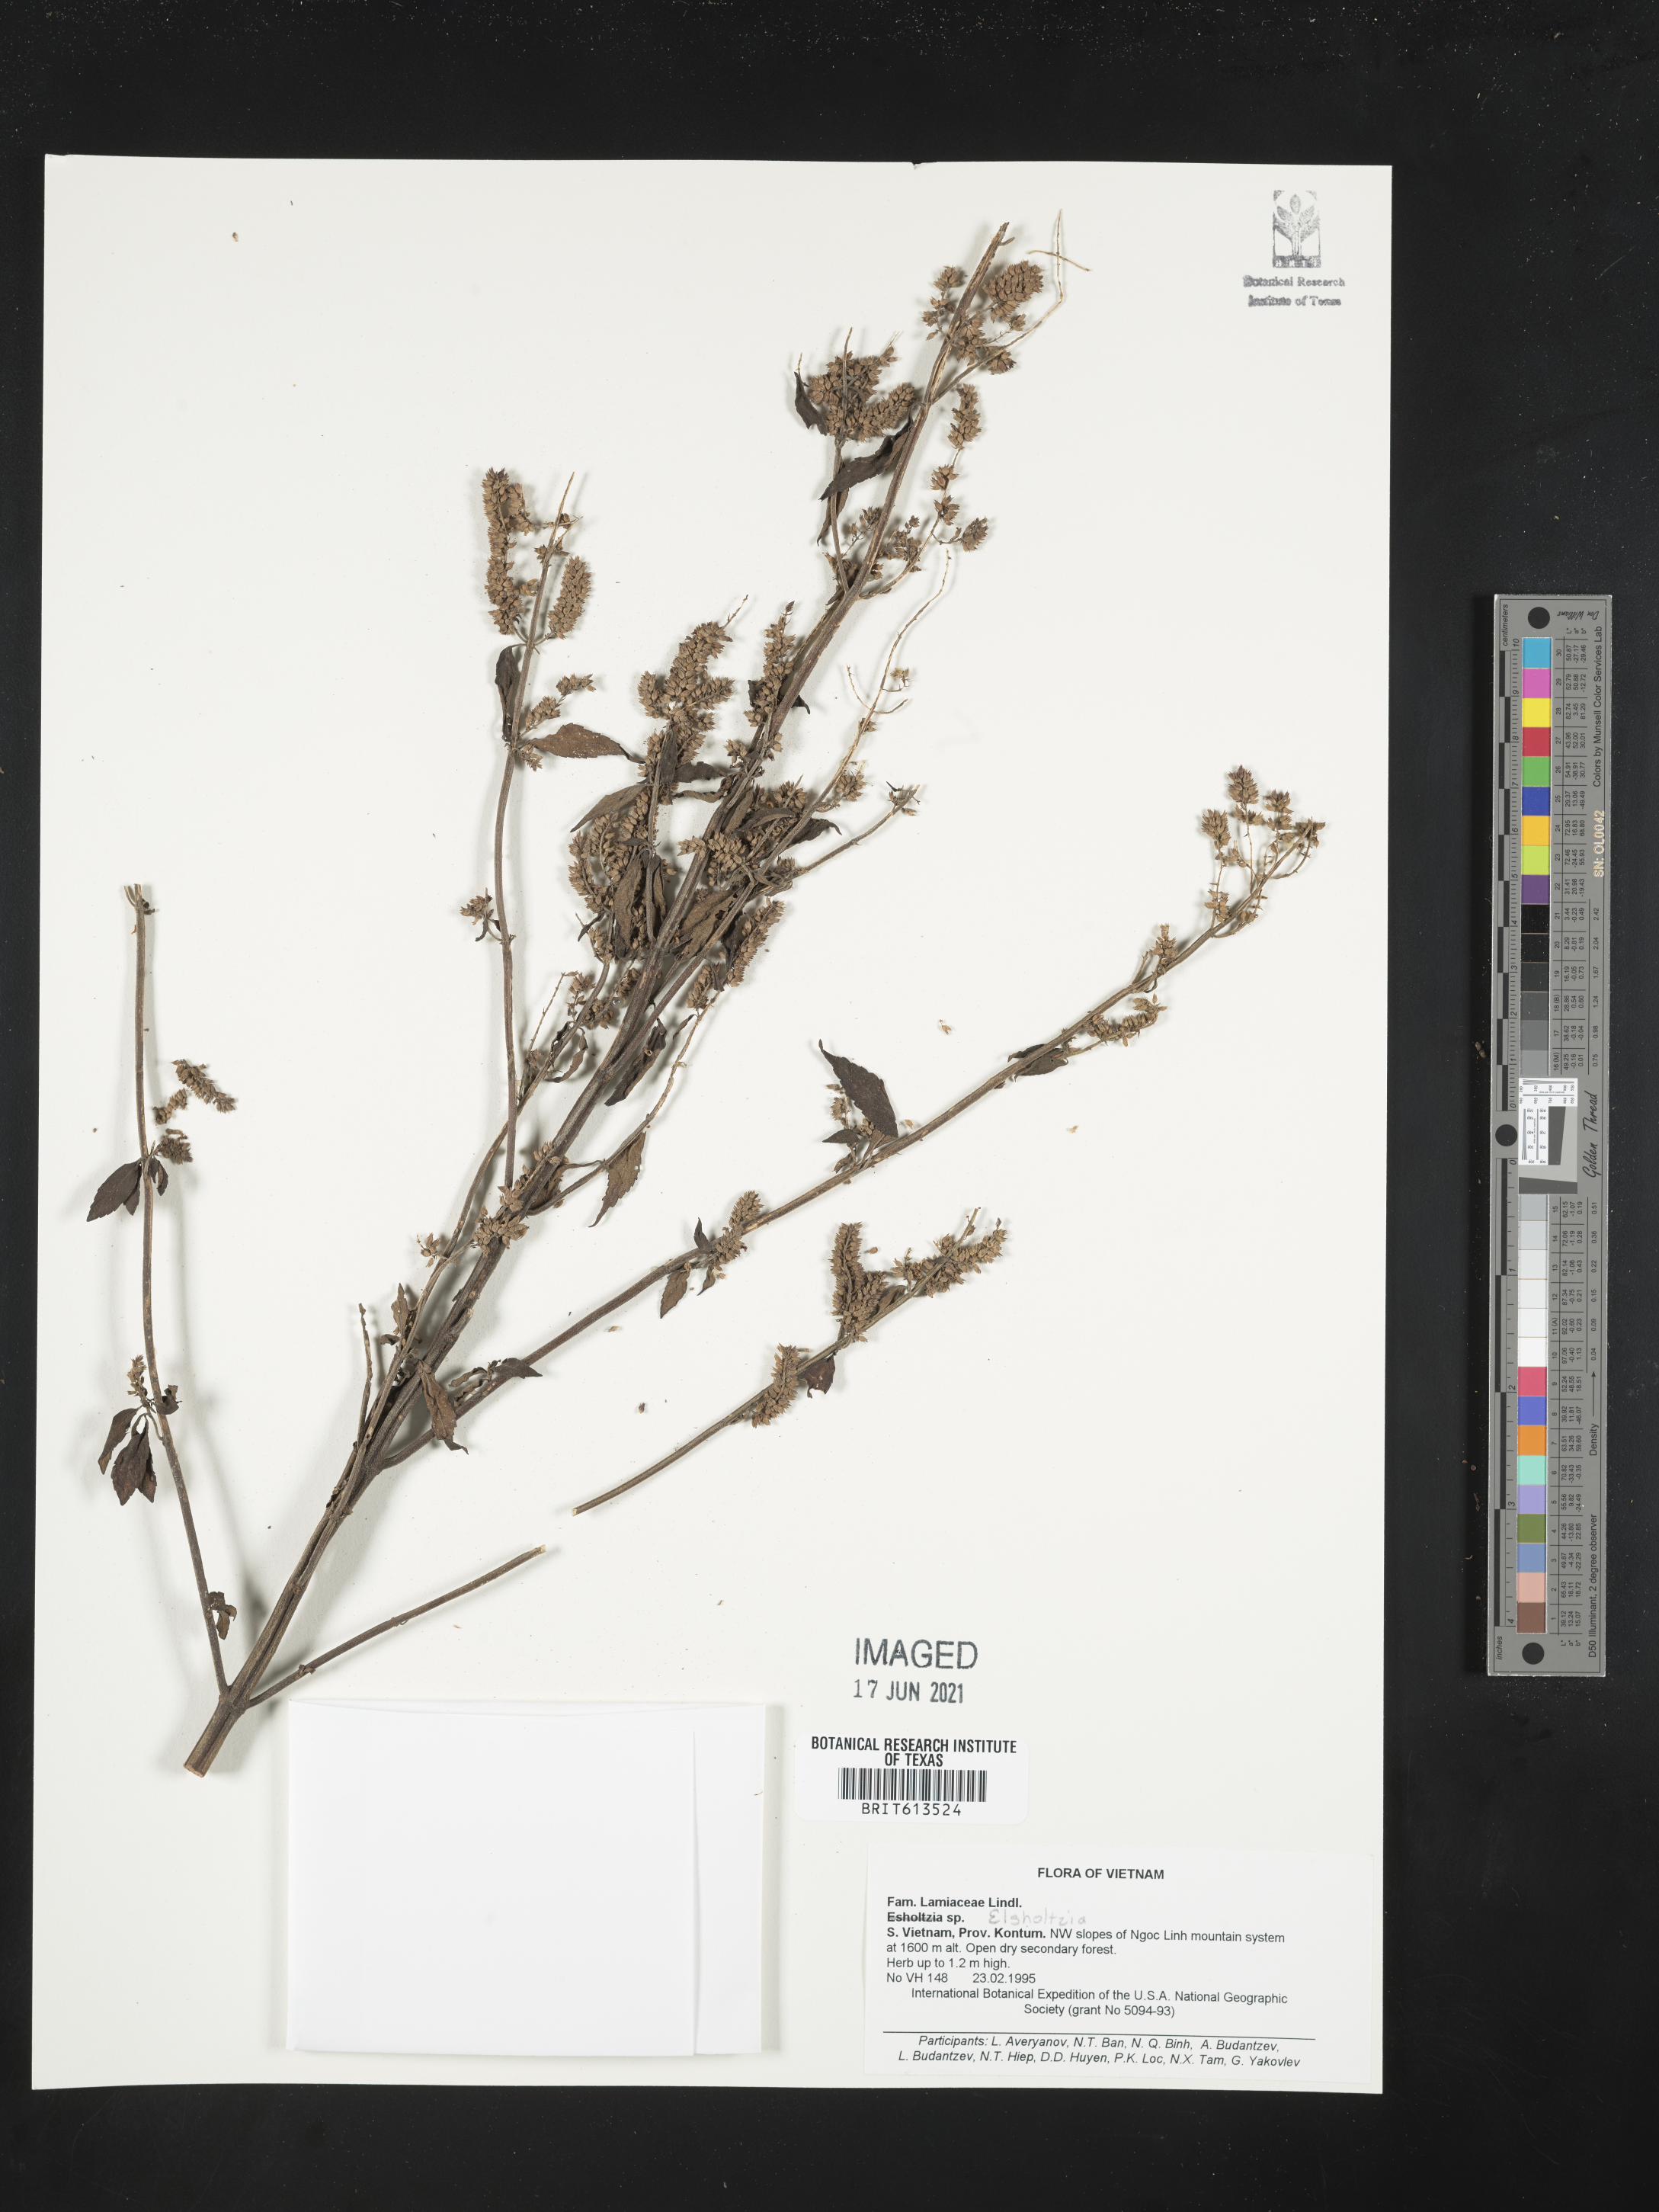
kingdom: Plantae
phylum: Tracheophyta
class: Magnoliopsida
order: Lamiales
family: Lamiaceae
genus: Elsholtzia
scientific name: Elsholtzia
